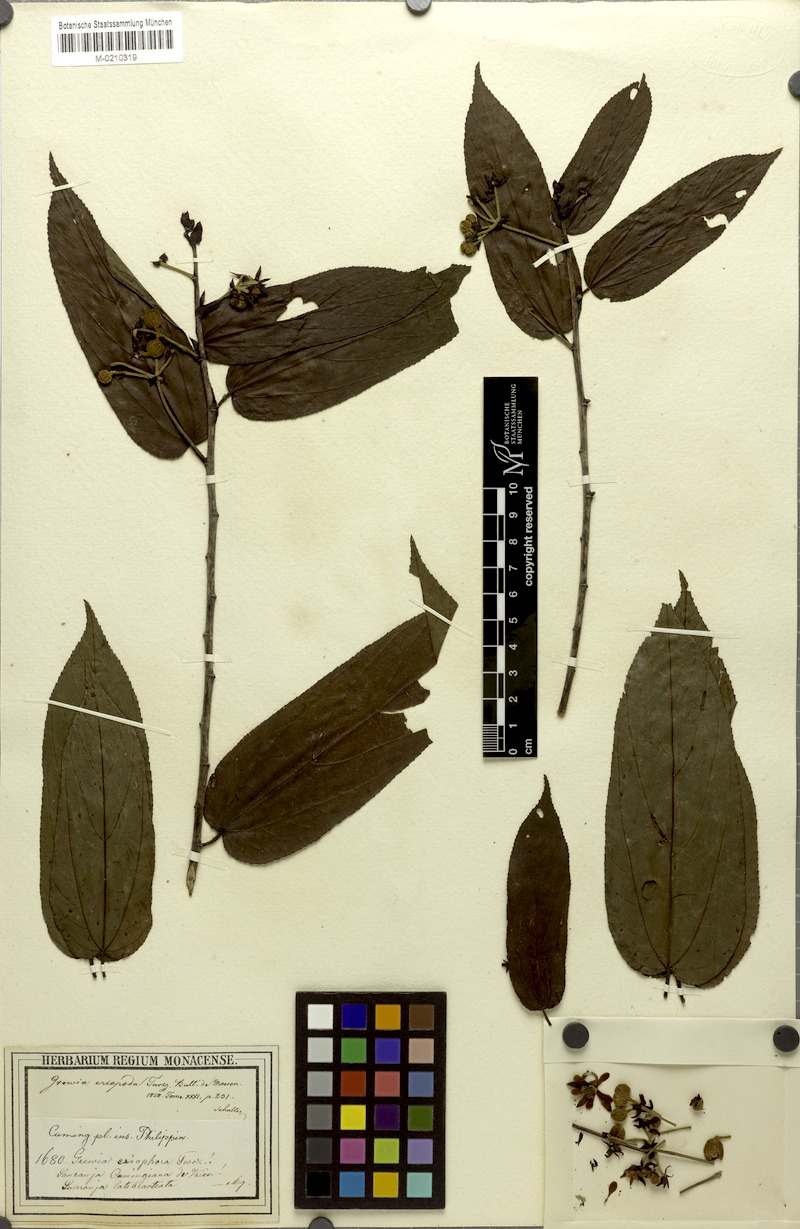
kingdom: Plantae
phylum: Tracheophyta
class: Magnoliopsida
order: Malvales
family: Malvaceae
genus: Trichospermum
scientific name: Trichospermum eriopodum
